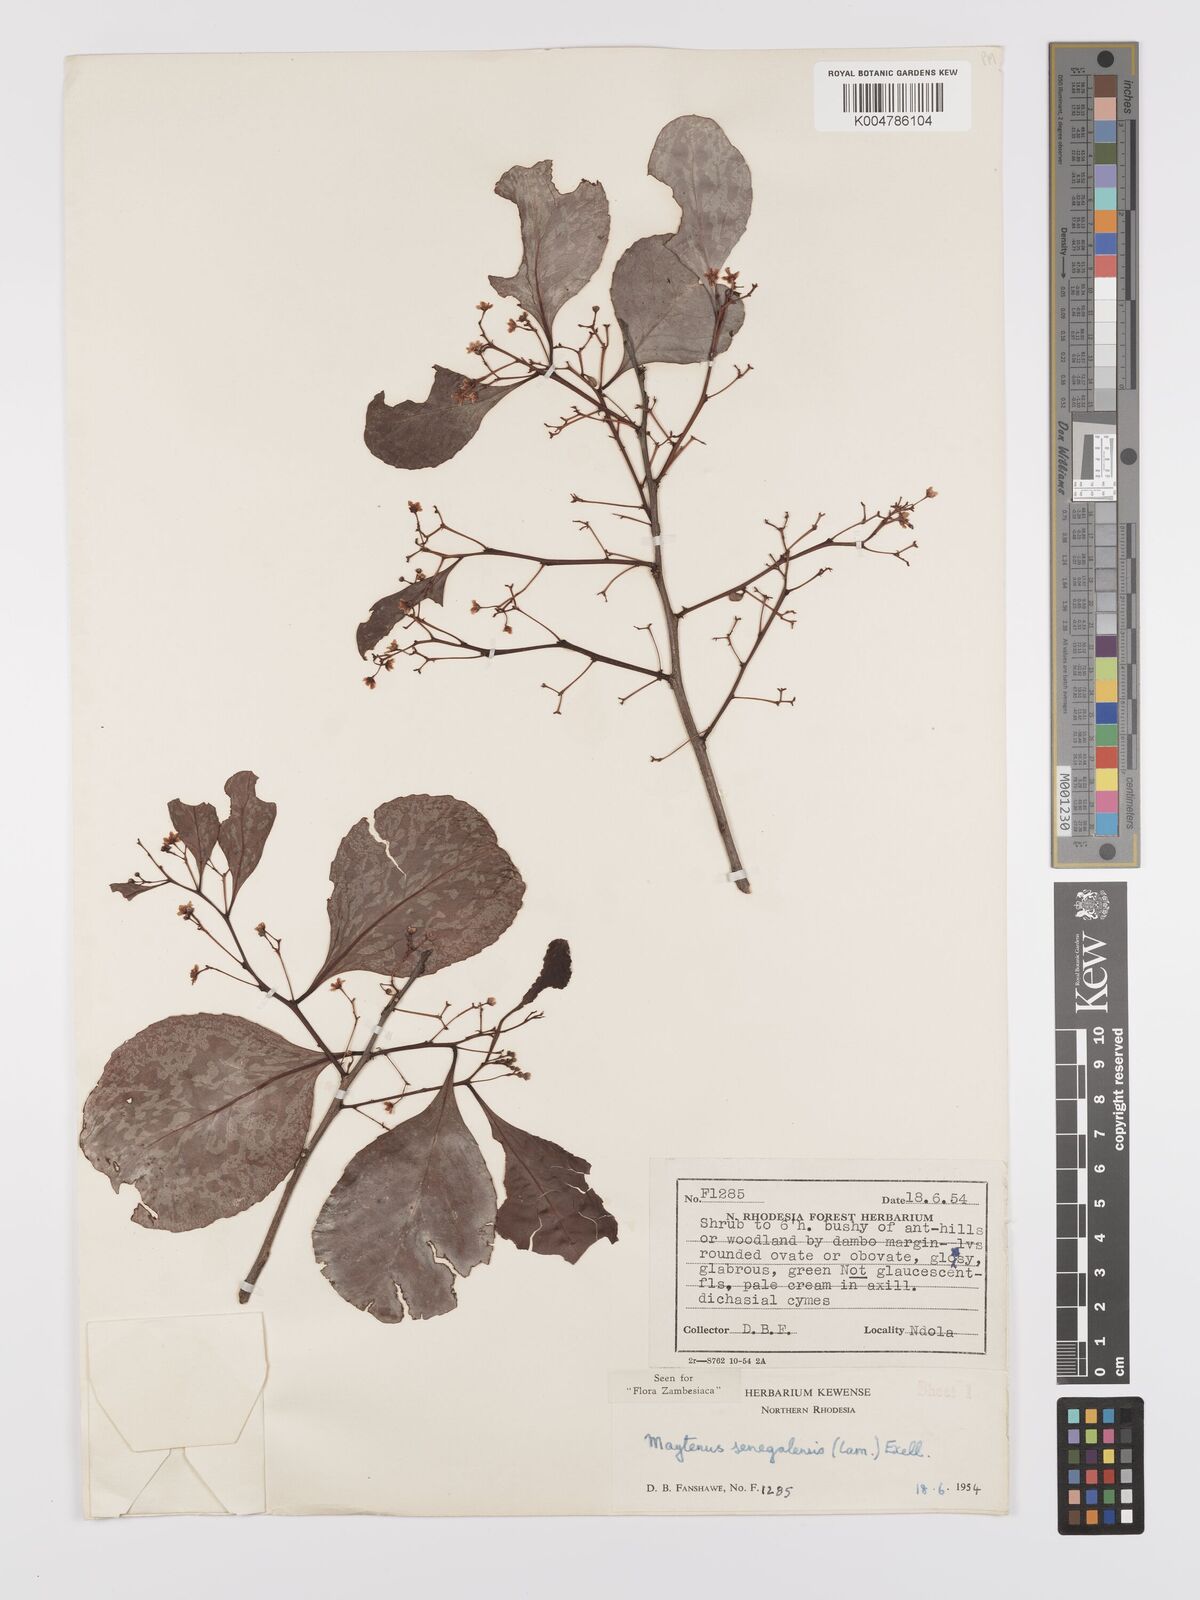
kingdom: Plantae
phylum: Tracheophyta
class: Magnoliopsida
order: Celastrales
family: Celastraceae
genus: Gymnosporia
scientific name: Gymnosporia senegalensis
